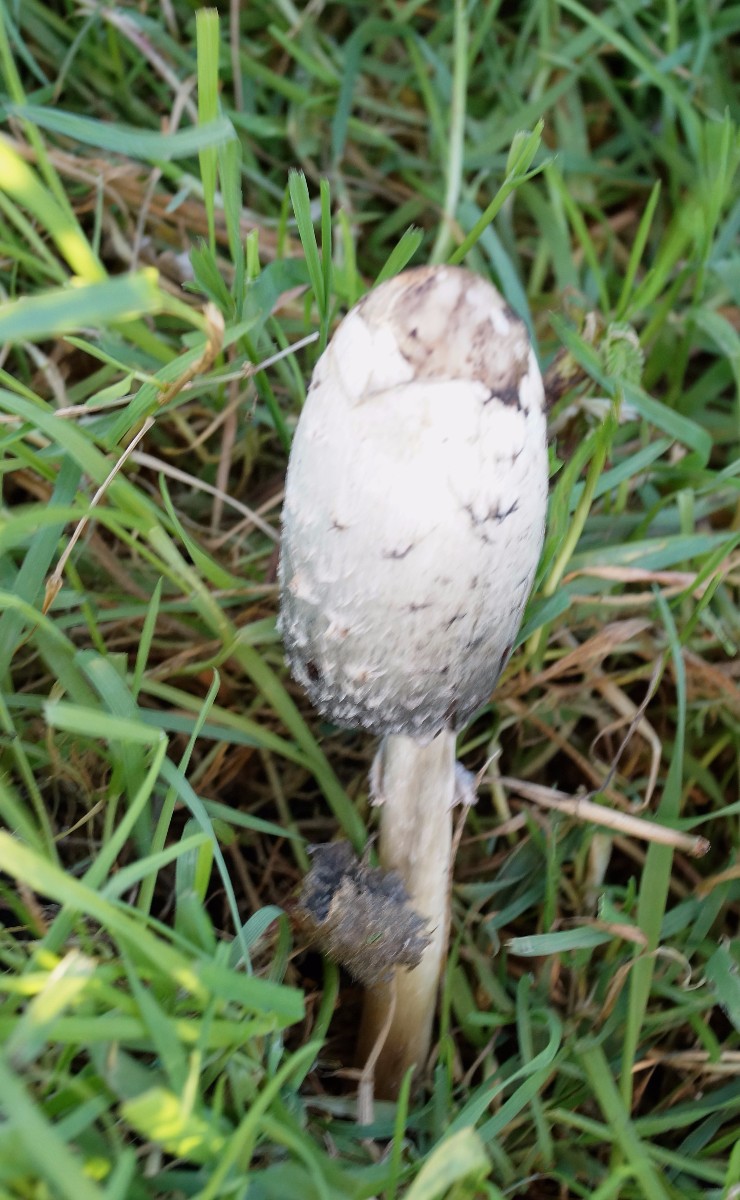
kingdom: Fungi
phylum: Basidiomycota
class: Agaricomycetes
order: Agaricales
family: Agaricaceae
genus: Coprinus
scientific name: Coprinus comatus
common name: stor parykhat
